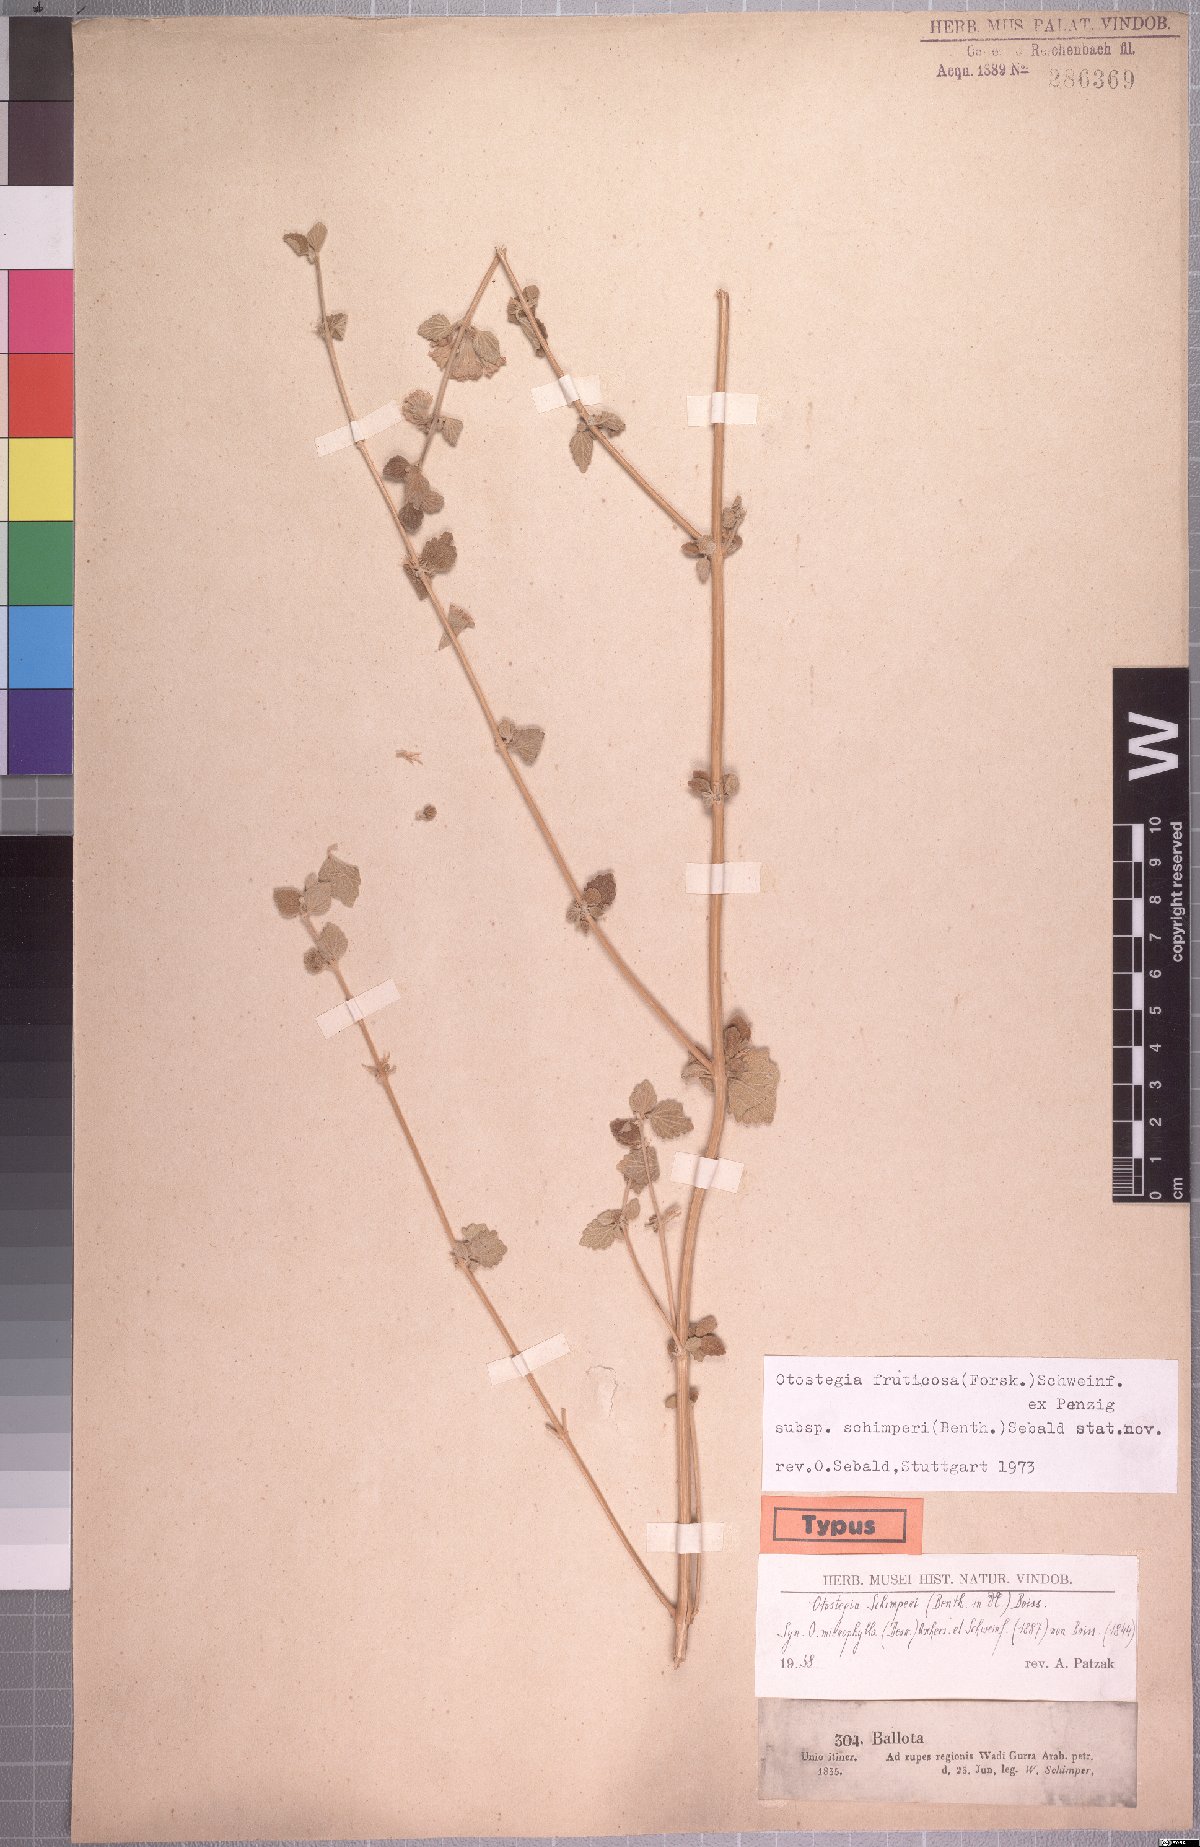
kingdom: Plantae
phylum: Tracheophyta
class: Magnoliopsida
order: Lamiales
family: Lamiaceae
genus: Otostegia
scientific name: Otostegia fruticosa
